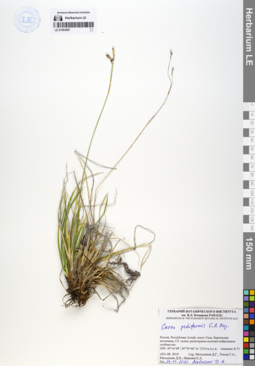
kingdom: Plantae
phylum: Tracheophyta
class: Liliopsida
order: Poales
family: Cyperaceae
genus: Carex
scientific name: Carex pediformis
